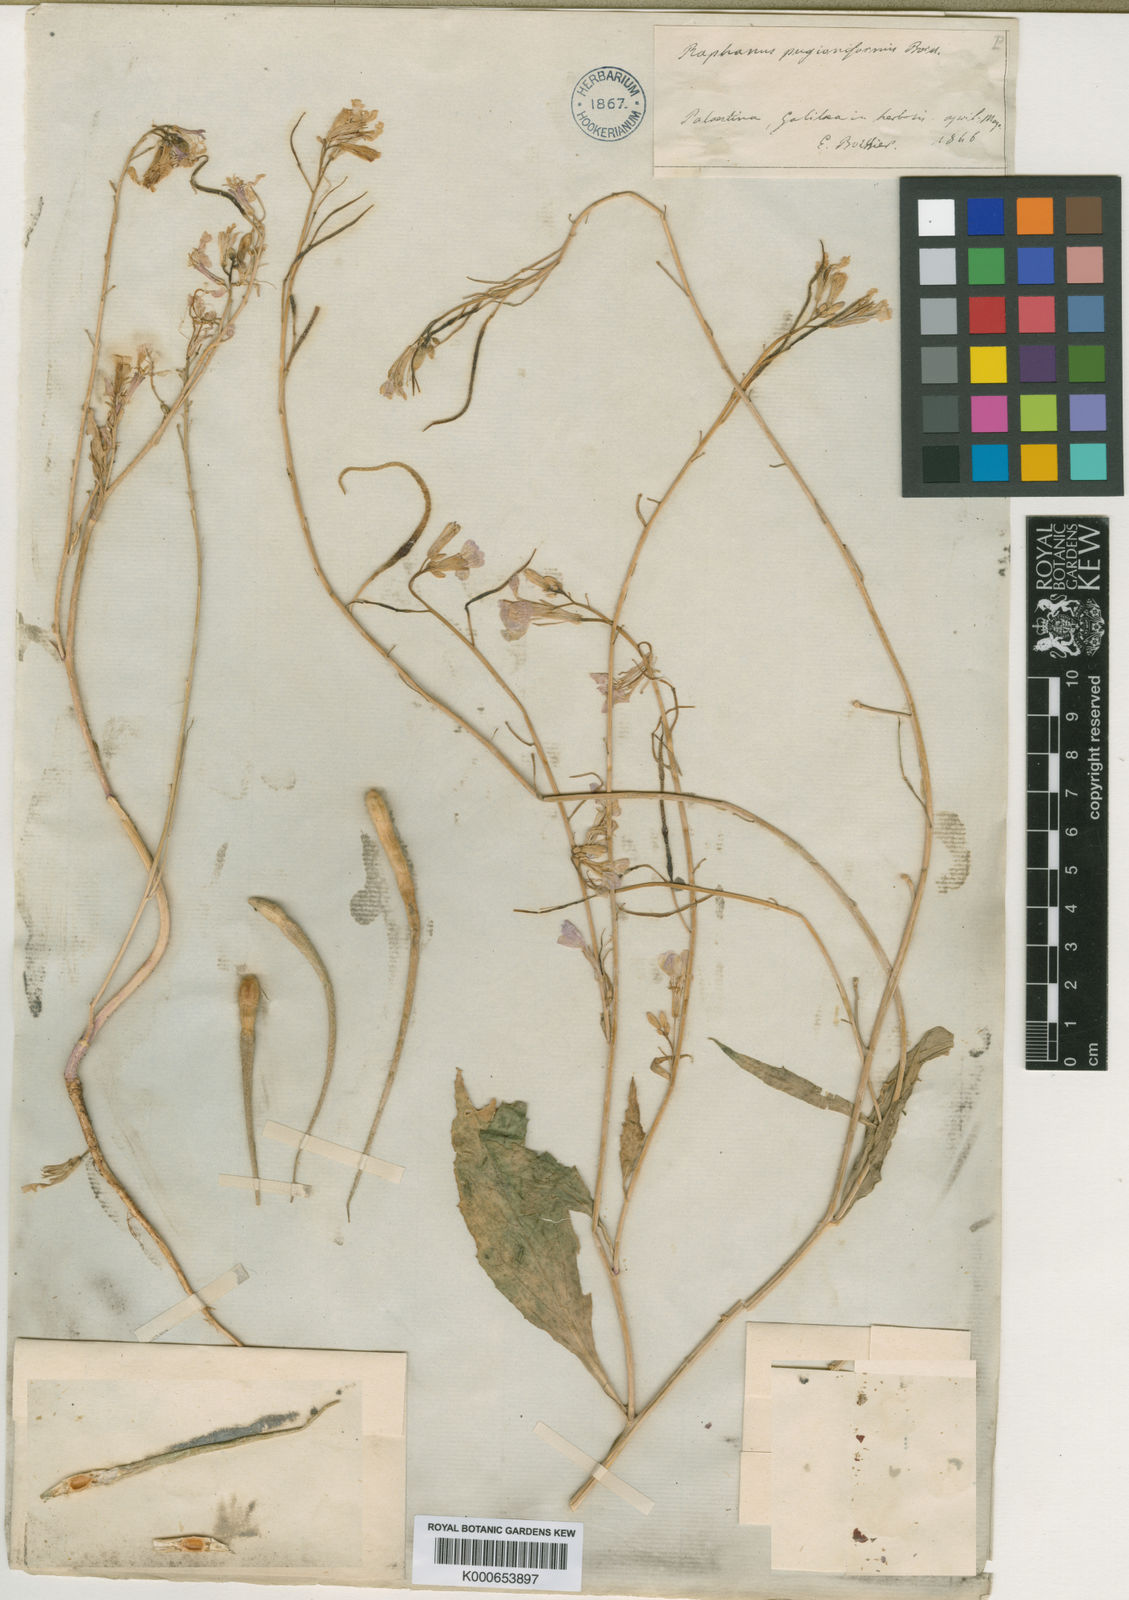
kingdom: Plantae
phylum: Tracheophyta
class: Magnoliopsida
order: Brassicales
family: Brassicaceae
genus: Raphanus
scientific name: Raphanus raphanistrum
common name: Wild radish
